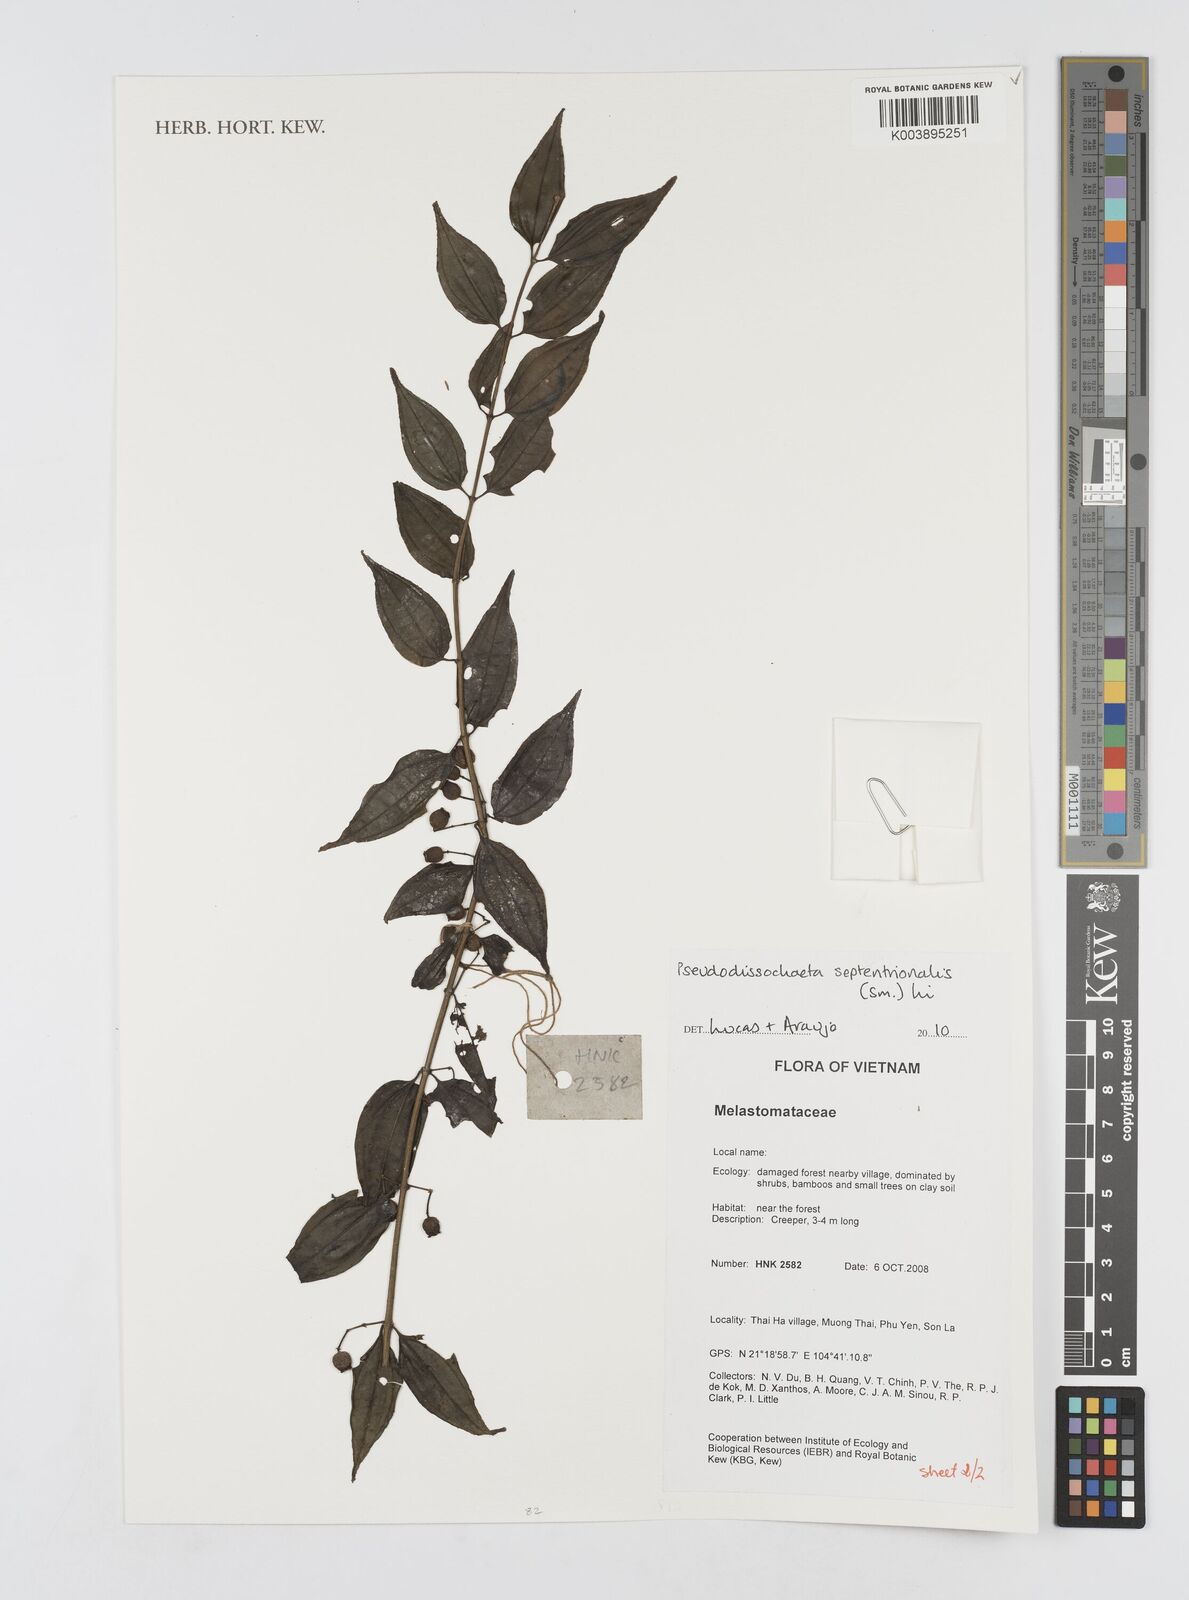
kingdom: Plantae
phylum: Tracheophyta
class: Magnoliopsida
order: Myrtales
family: Melastomataceae
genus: Pseudodissochaeta
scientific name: Pseudodissochaeta septentrionalis
